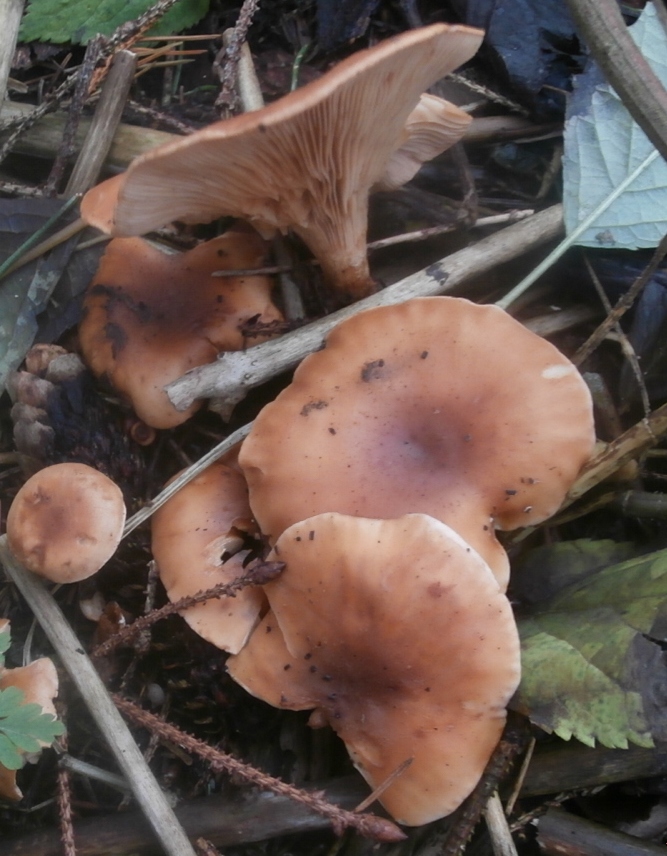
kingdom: Fungi
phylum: Basidiomycota
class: Agaricomycetes
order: Agaricales
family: Tricholomataceae
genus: Paralepista
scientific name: Paralepista flaccida
